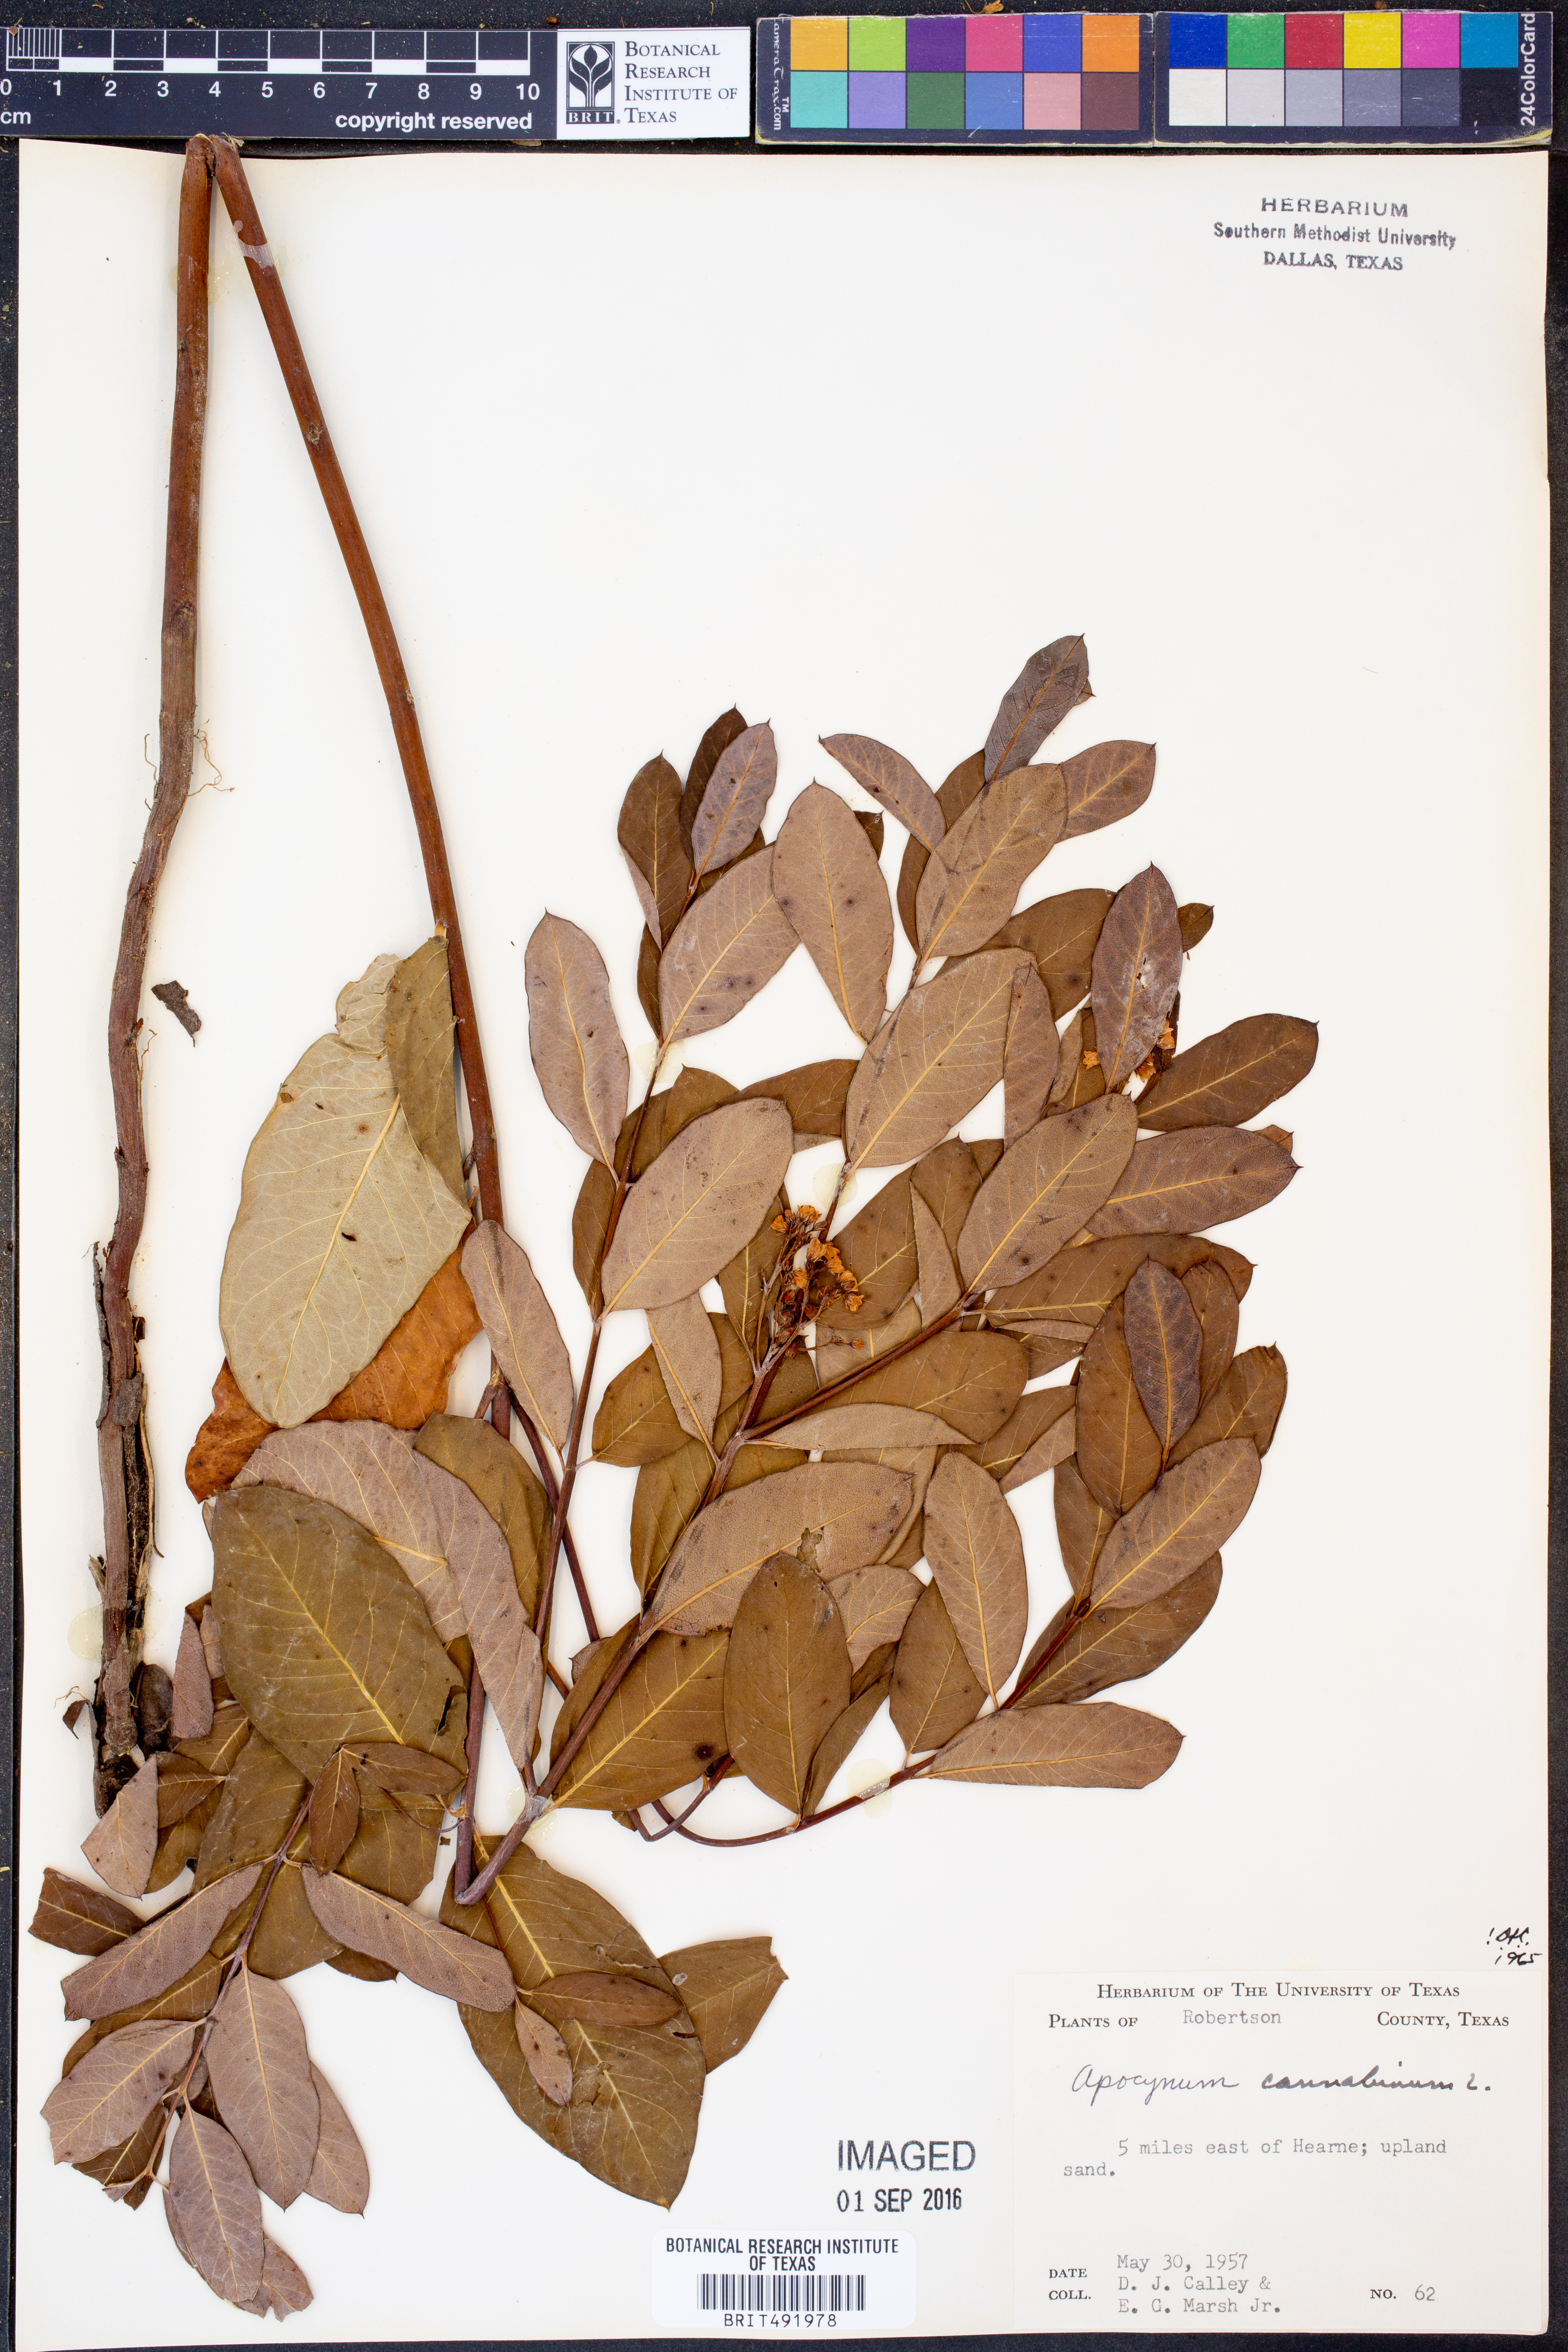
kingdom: Plantae
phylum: Tracheophyta
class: Magnoliopsida
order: Gentianales
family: Apocynaceae
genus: Apocynum
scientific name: Apocynum cannabinum
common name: Hemp dogbane
